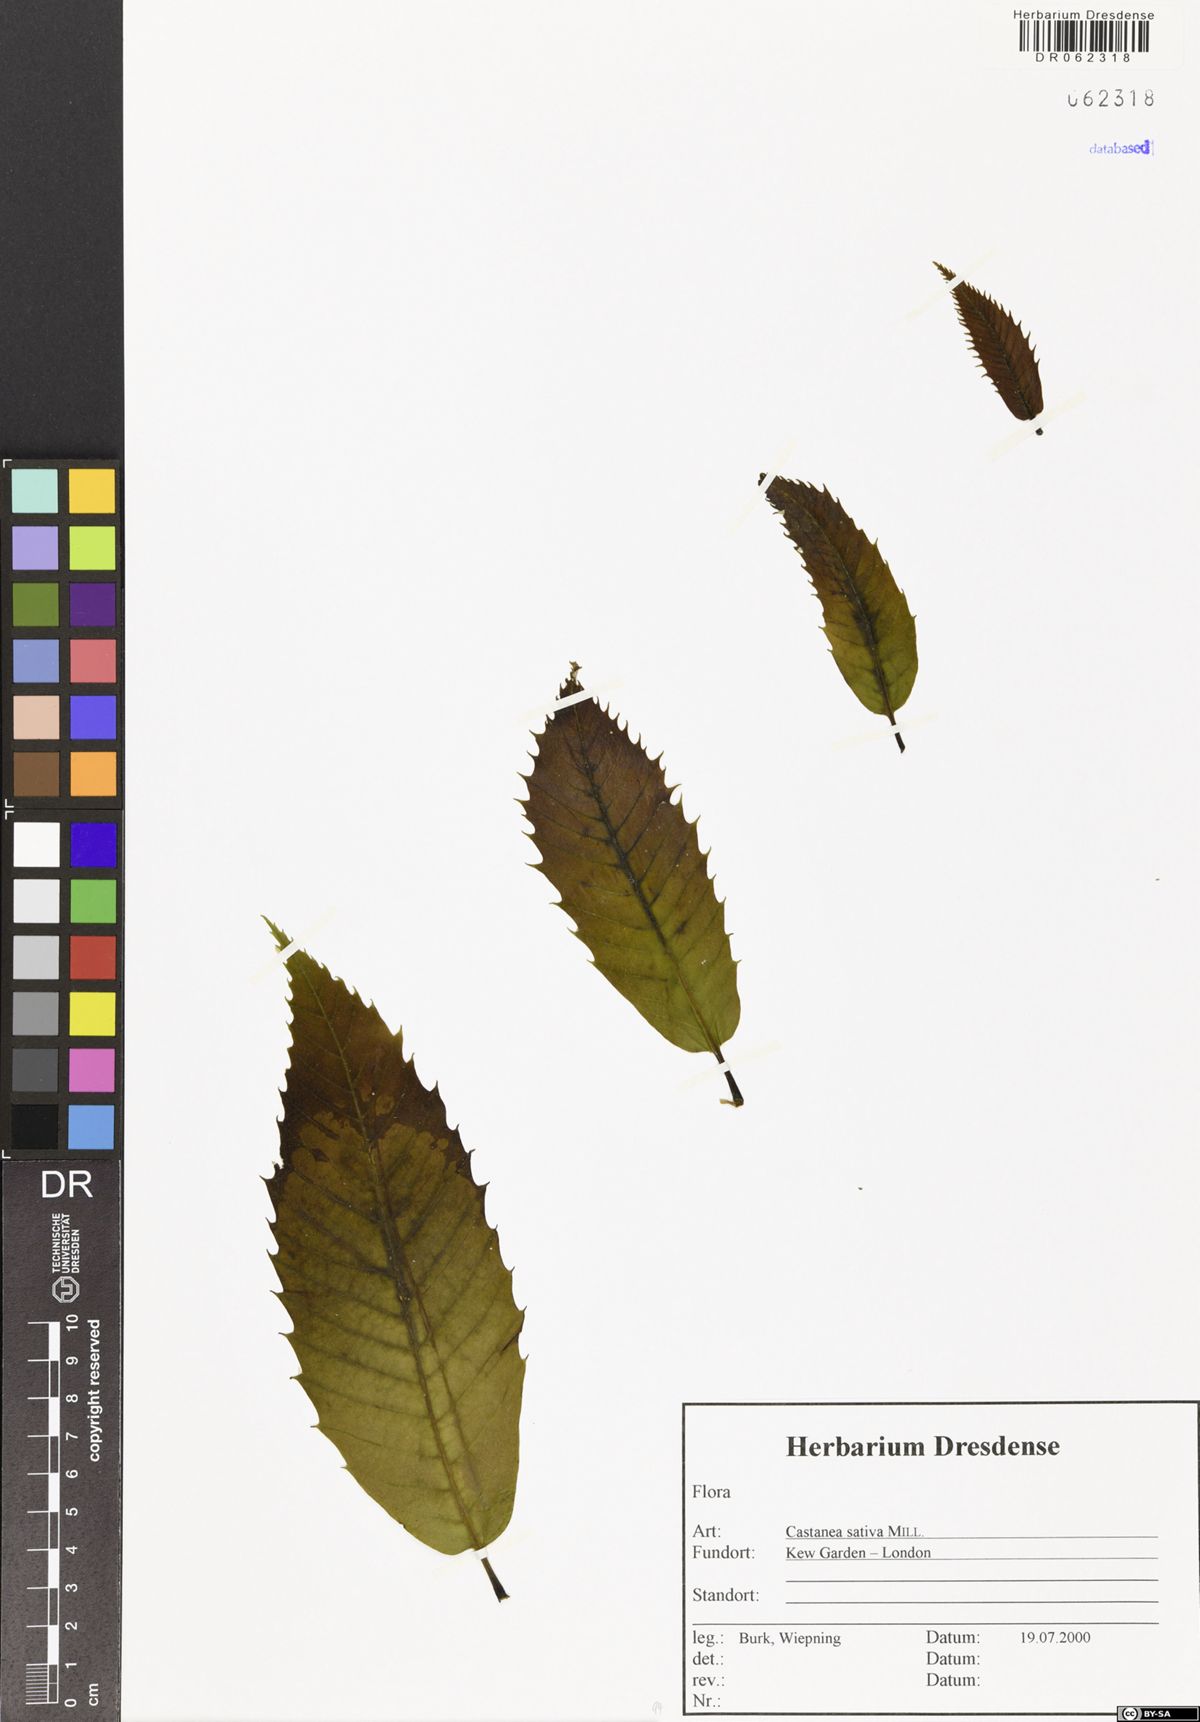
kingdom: Plantae
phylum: Tracheophyta
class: Magnoliopsida
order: Fagales
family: Fagaceae
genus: Castanea
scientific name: Castanea sativa
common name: Sweet chestnut
